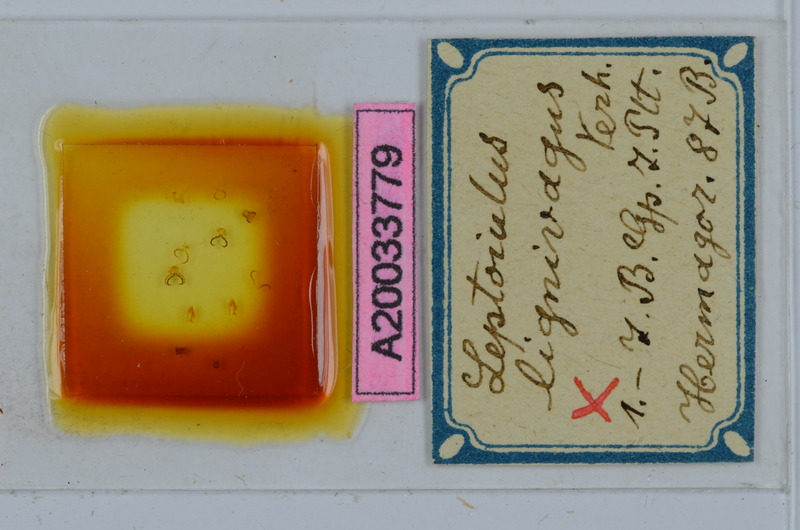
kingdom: Animalia
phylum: Arthropoda
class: Diplopoda
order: Julida
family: Julidae
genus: Leptoiulus
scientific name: Leptoiulus vagabundus
